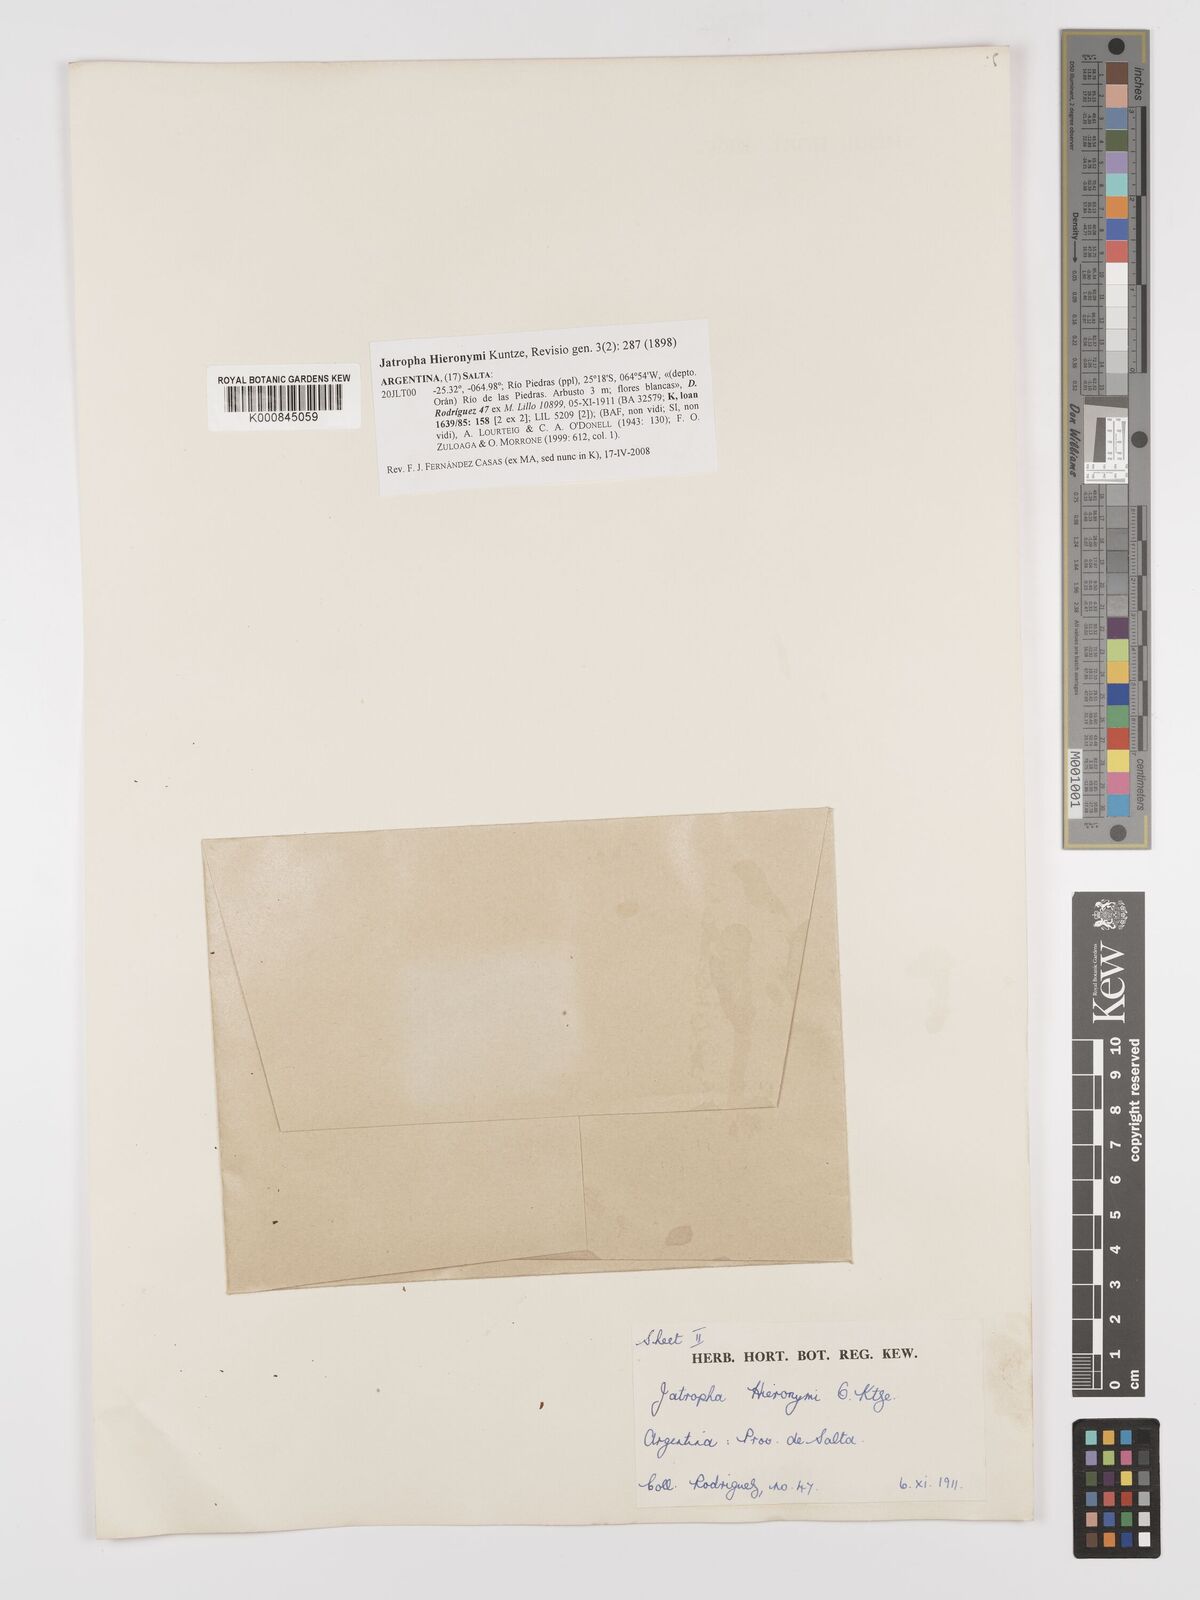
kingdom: Plantae
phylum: Tracheophyta
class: Magnoliopsida
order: Malpighiales
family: Euphorbiaceae
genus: Jatropha
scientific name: Jatropha hieronymi
